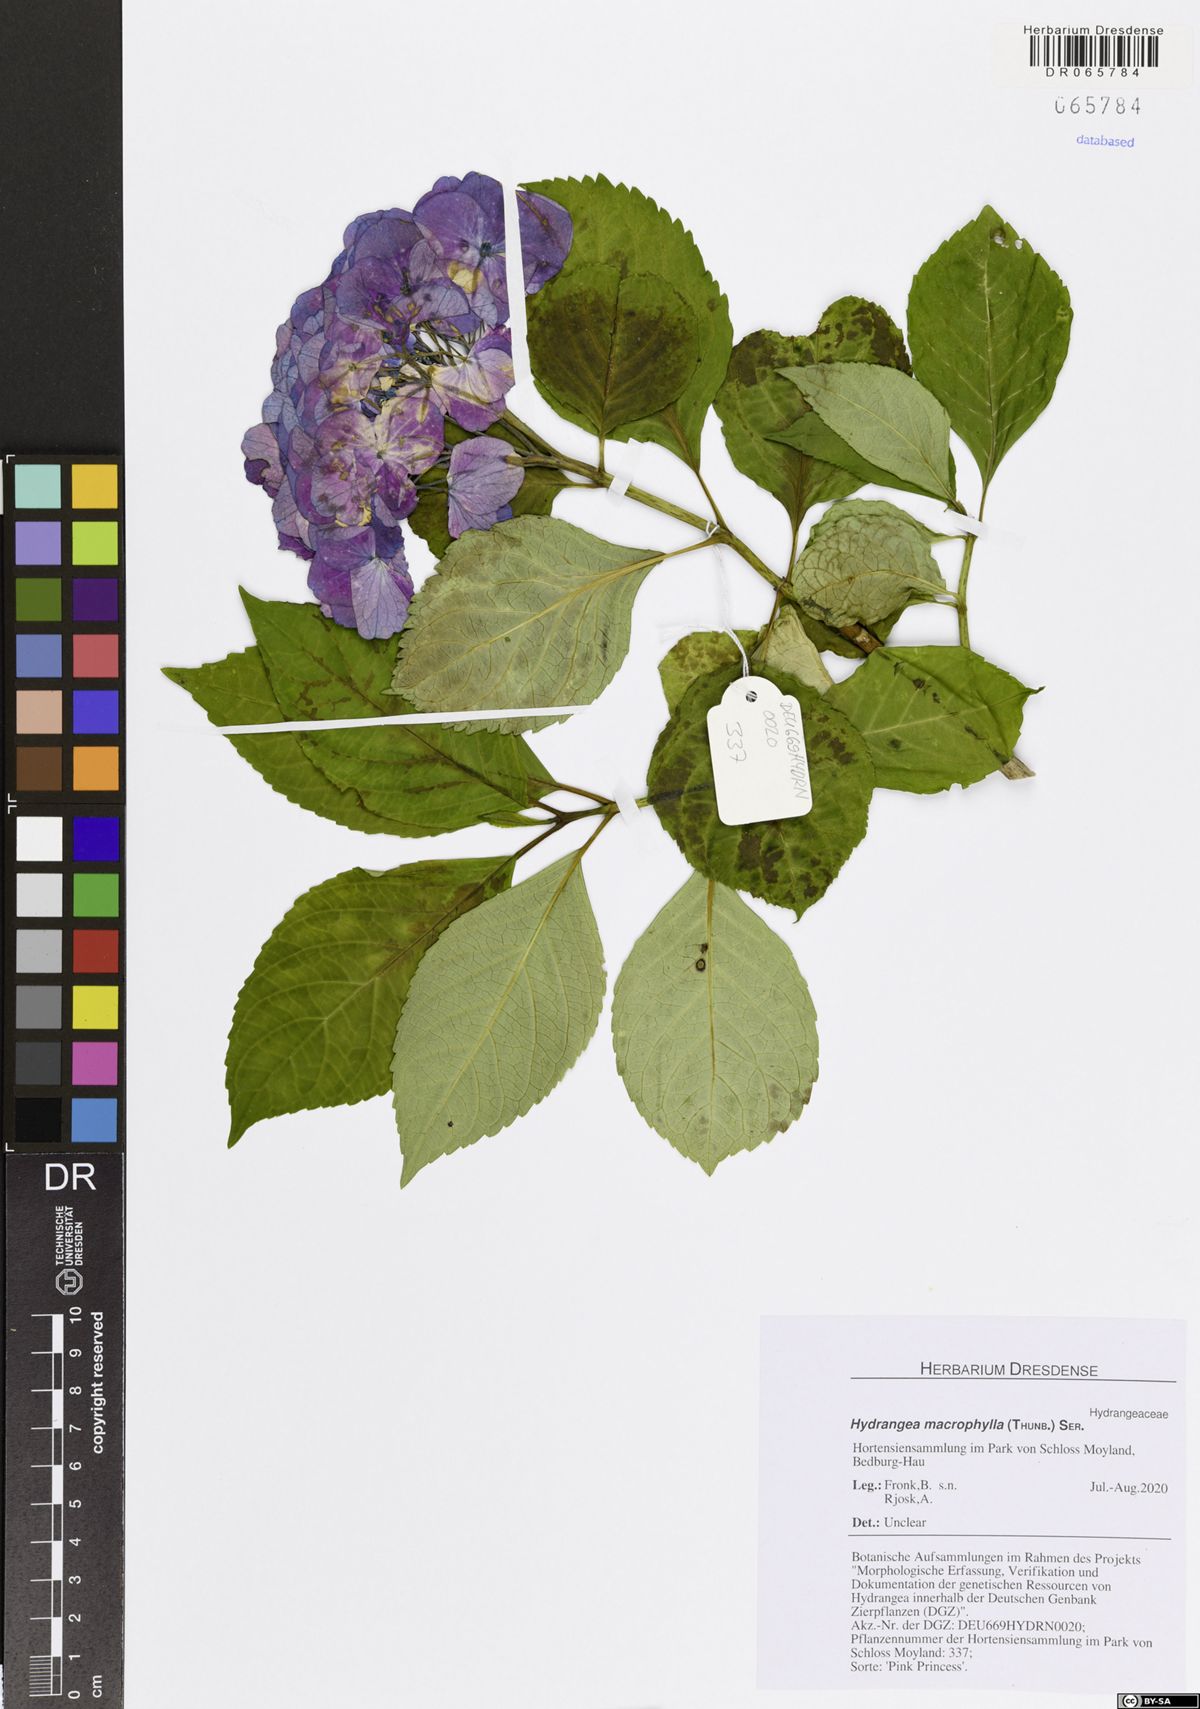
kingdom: Plantae
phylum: Tracheophyta
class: Magnoliopsida
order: Cornales
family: Hydrangeaceae
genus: Hydrangea
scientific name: Hydrangea macrophylla
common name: Hydrangea
